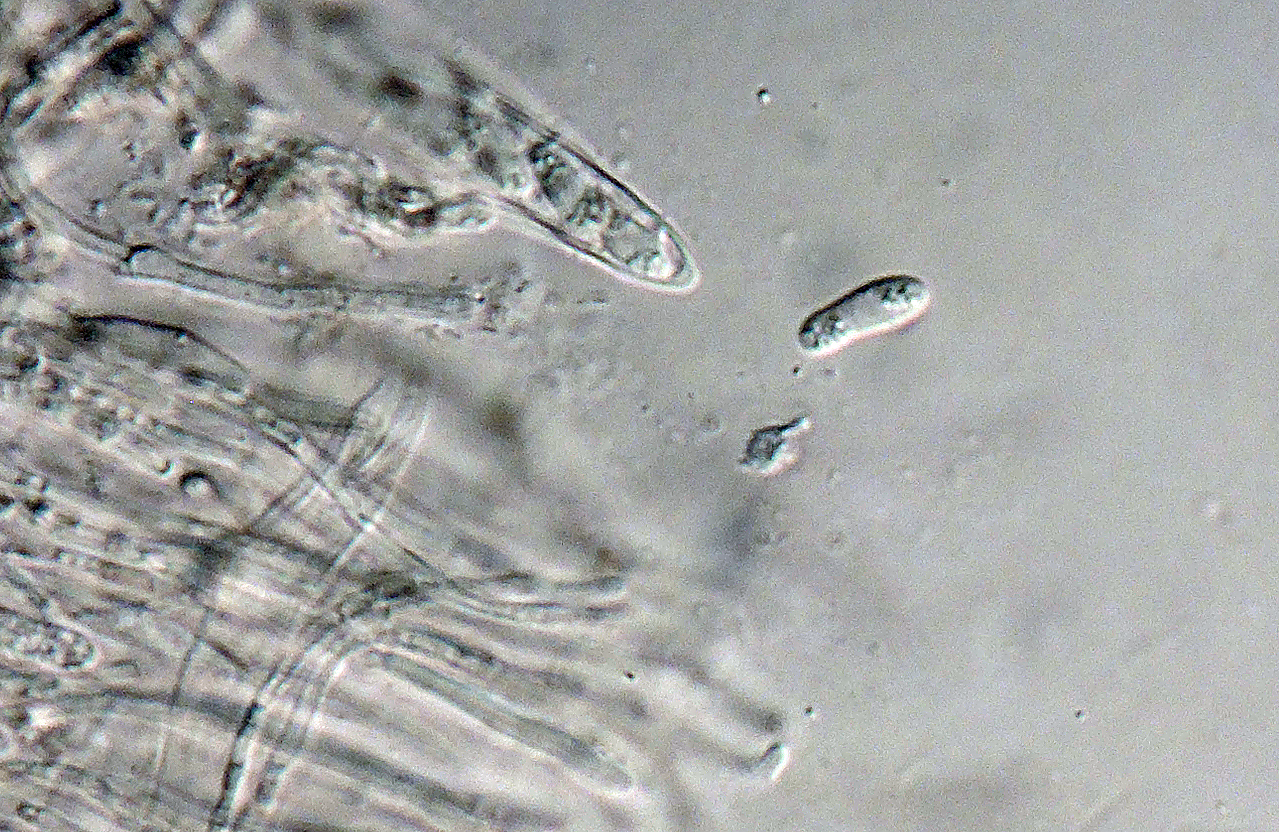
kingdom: Fungi
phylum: Ascomycota
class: Leotiomycetes
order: Helotiales
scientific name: Helotiales
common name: stilkskiveordenen
